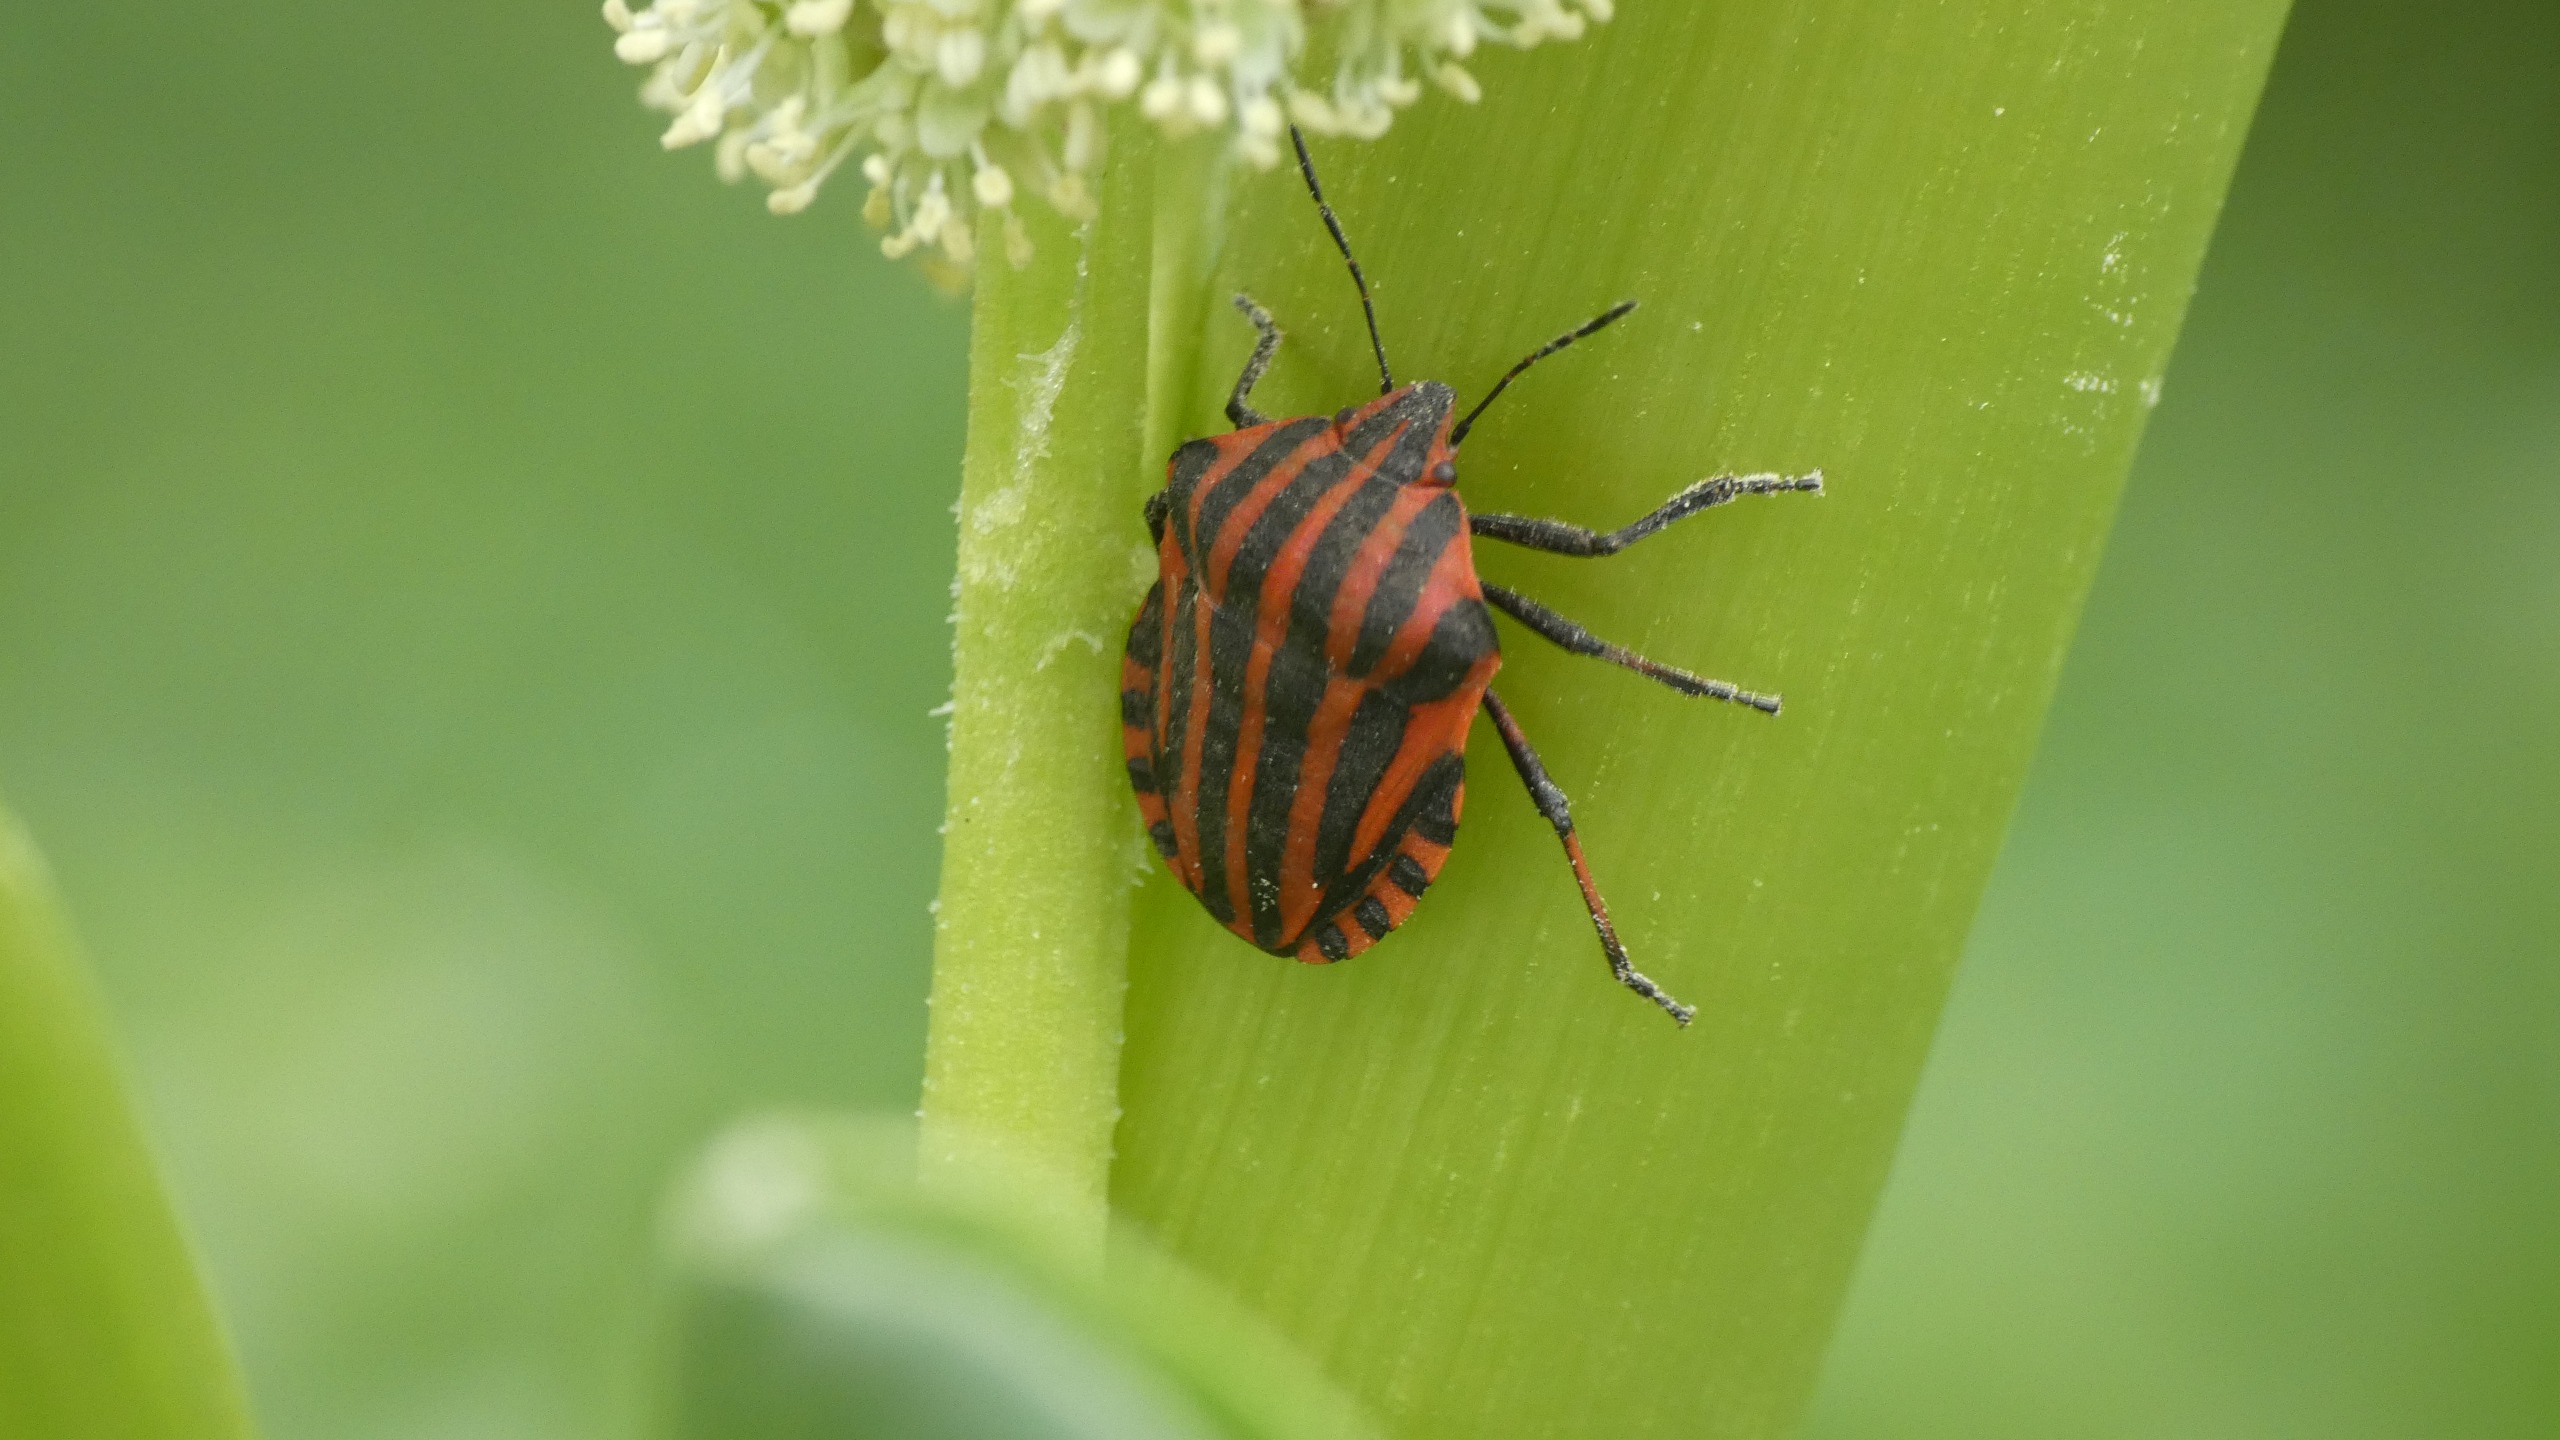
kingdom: Animalia
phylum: Arthropoda
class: Insecta
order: Hemiptera
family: Pentatomidae
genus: Graphosoma
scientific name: Graphosoma italicum
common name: Stribetæge
